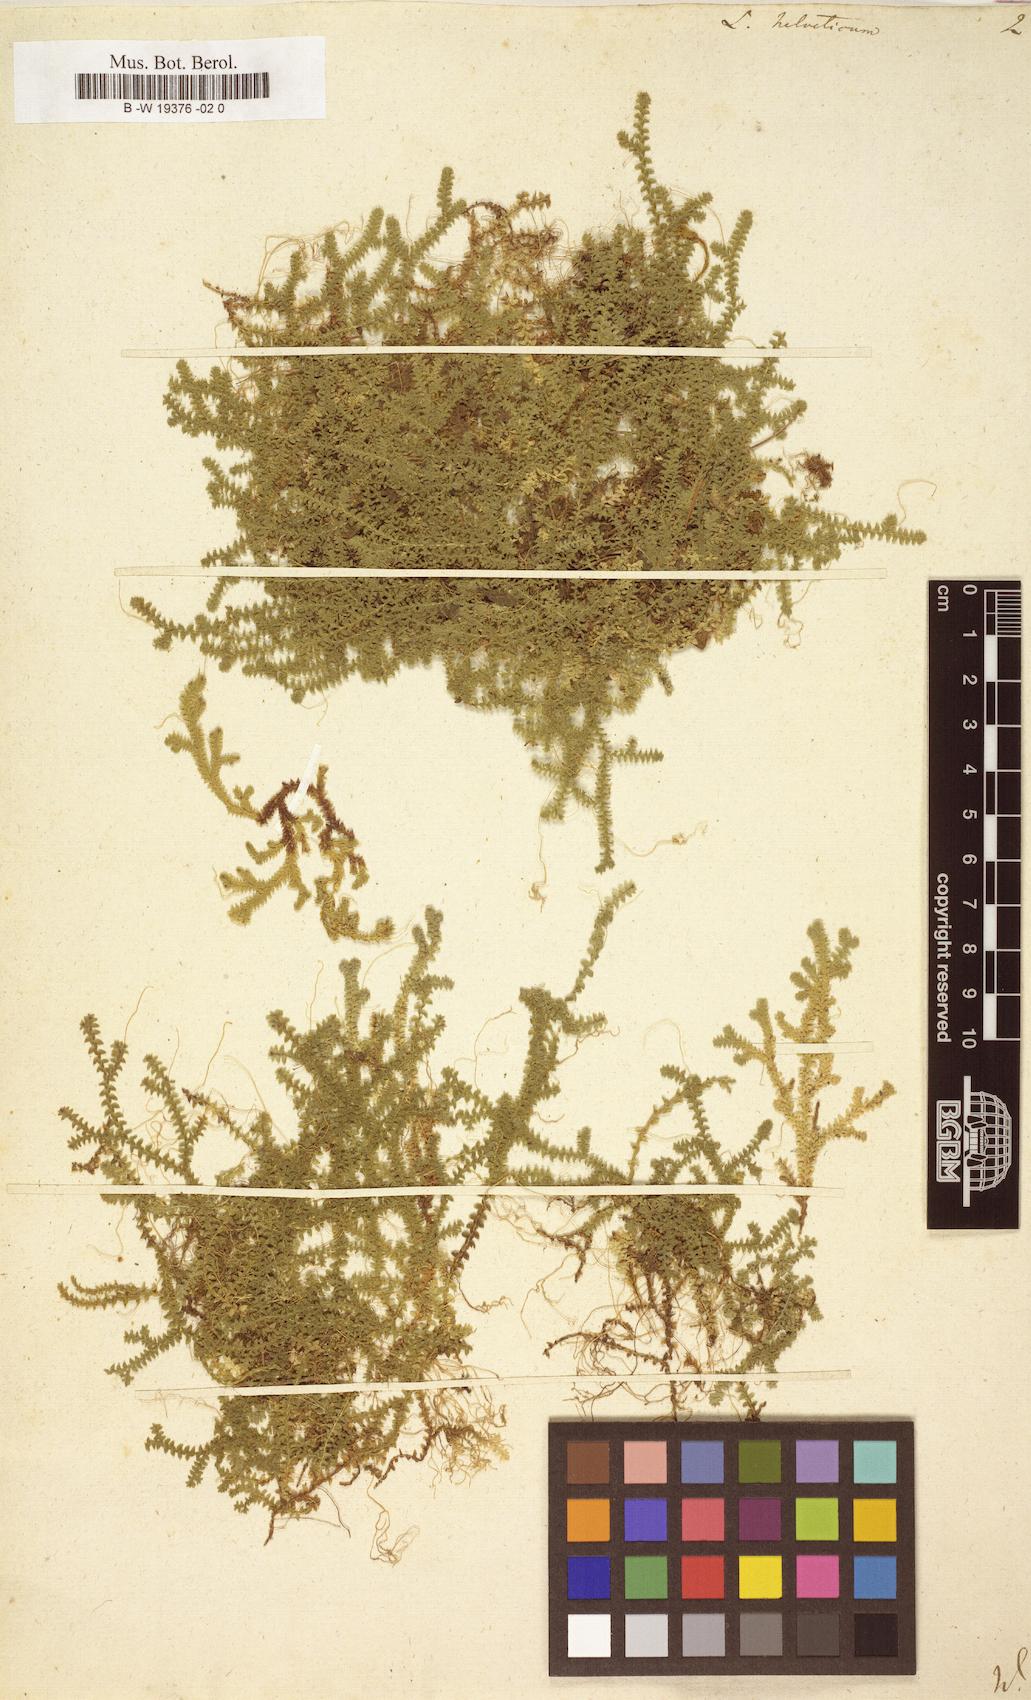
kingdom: Plantae
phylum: Tracheophyta
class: Lycopodiopsida
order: Selaginellales
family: Selaginellaceae
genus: Selaginella
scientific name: Selaginella helvetica
